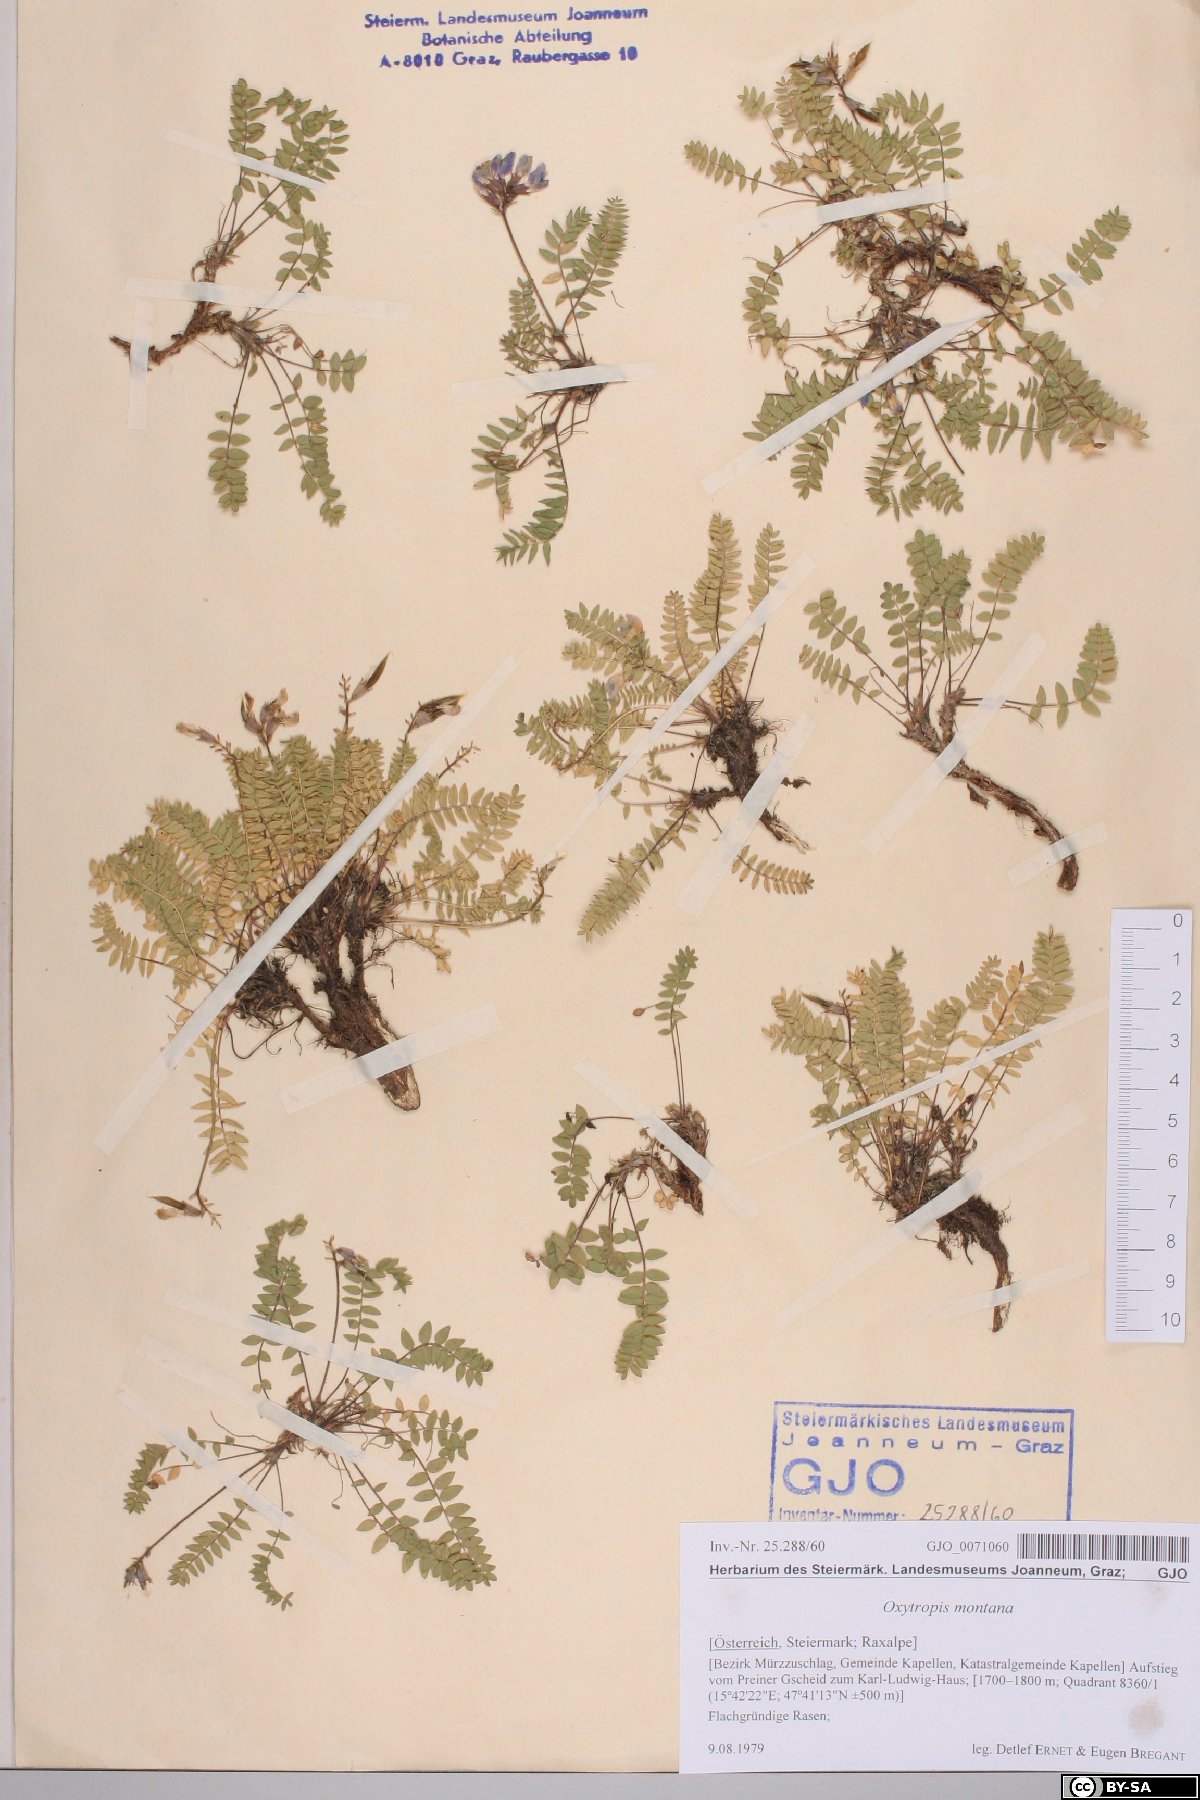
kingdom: Plantae
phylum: Tracheophyta
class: Magnoliopsida
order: Fabales
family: Fabaceae
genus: Oxytropis
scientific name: Oxytropis montana
